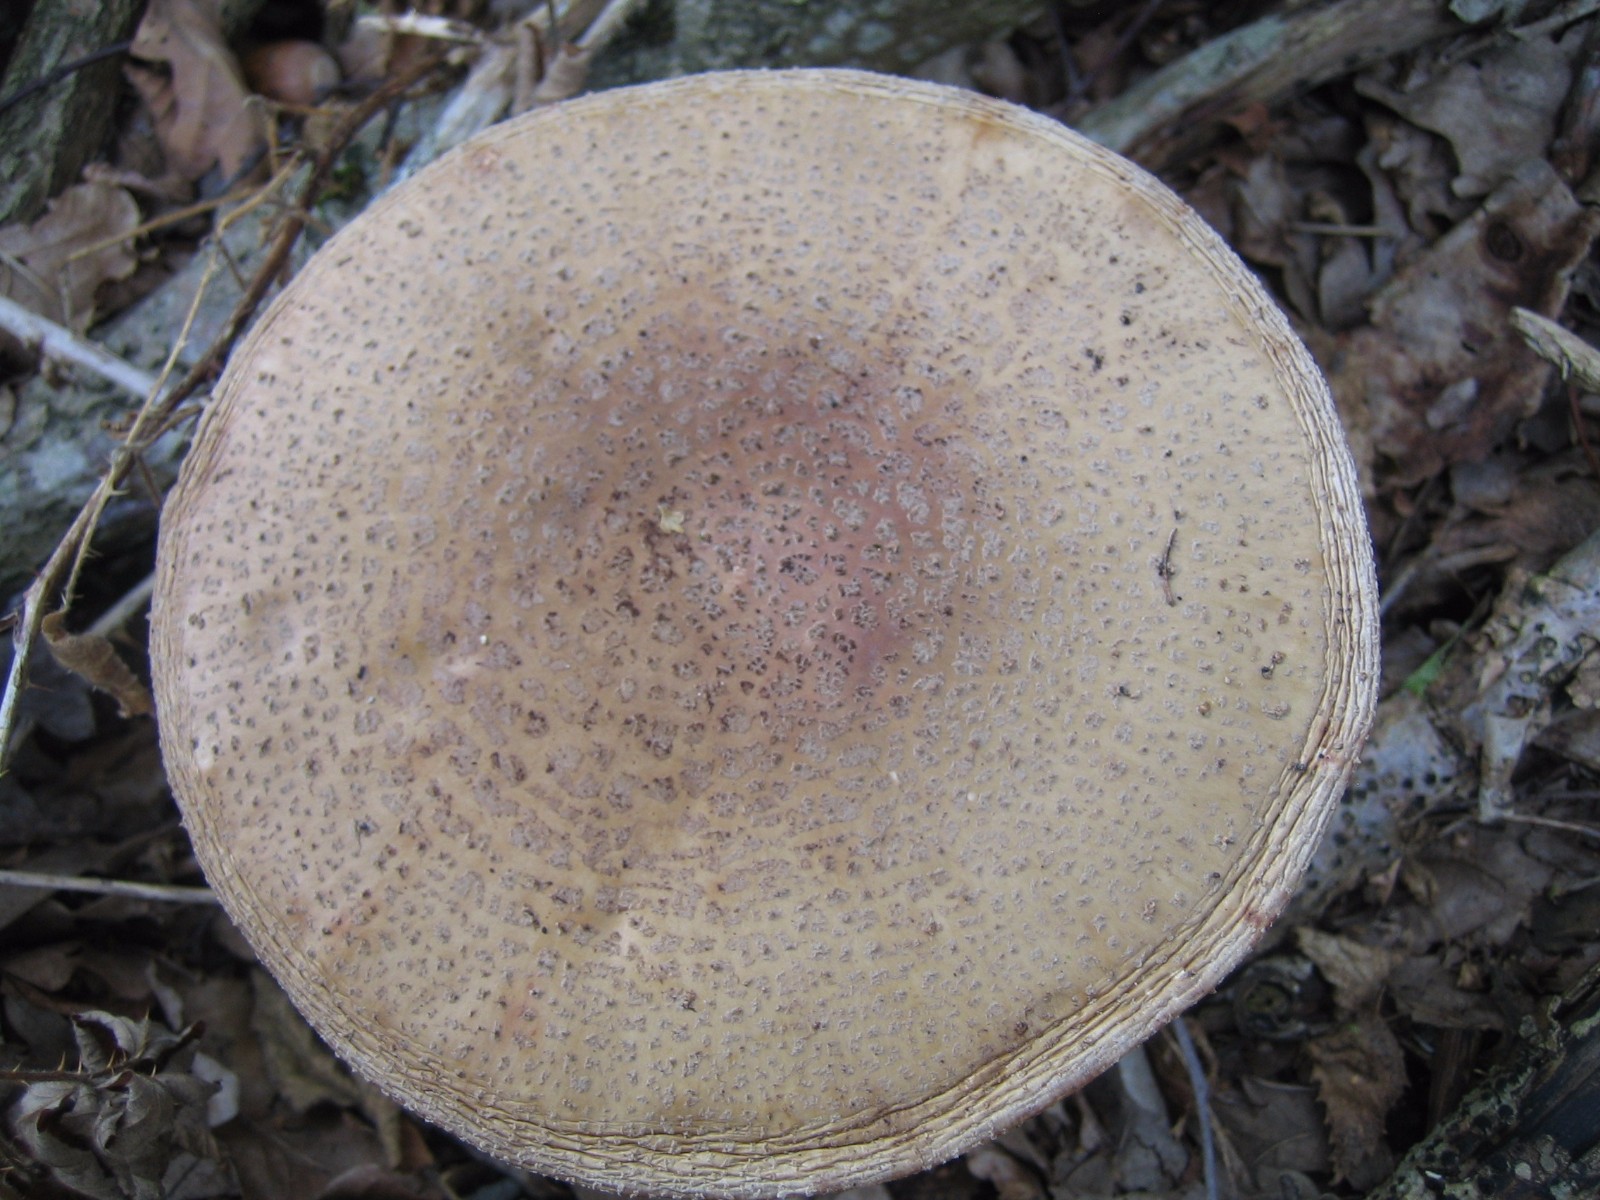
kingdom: Fungi
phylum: Basidiomycota
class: Agaricomycetes
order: Agaricales
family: Amanitaceae
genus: Amanita
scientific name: Amanita rubescens
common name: rødmende fluesvamp
